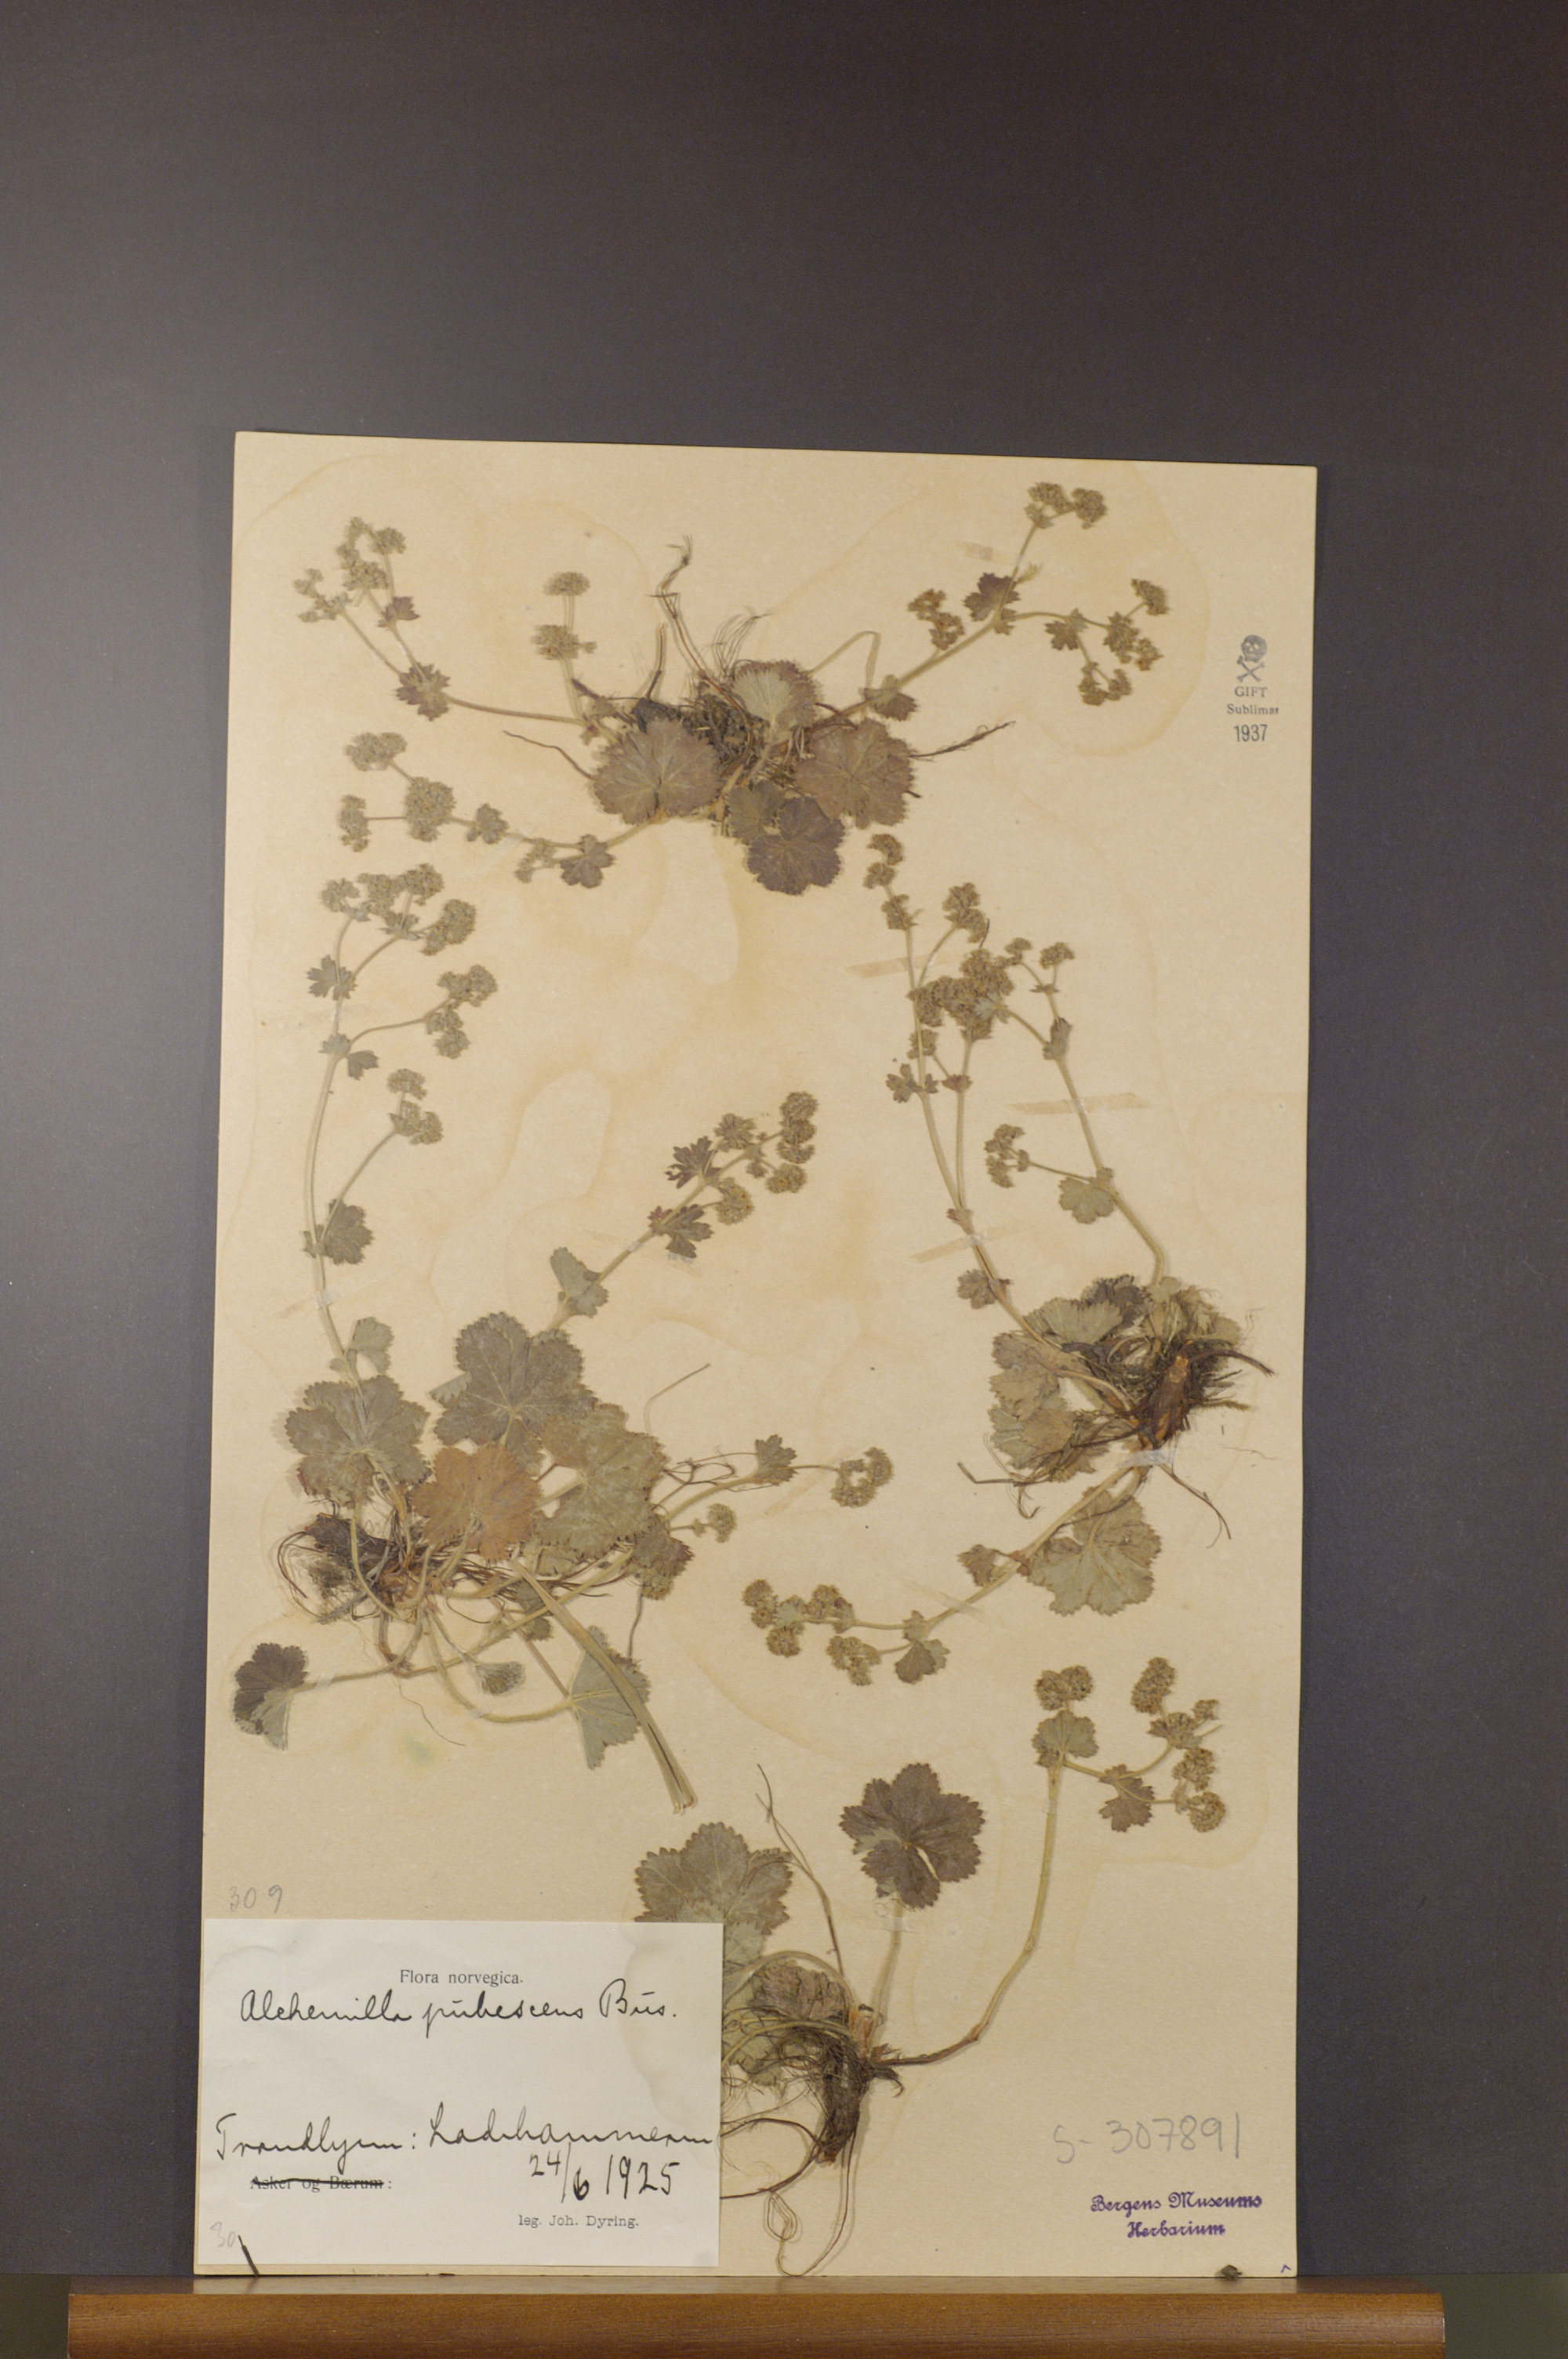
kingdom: Plantae
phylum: Tracheophyta
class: Magnoliopsida
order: Rosales
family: Rosaceae
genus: Alchemilla
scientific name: Alchemilla glaucescens
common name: Silky lady's mantle
